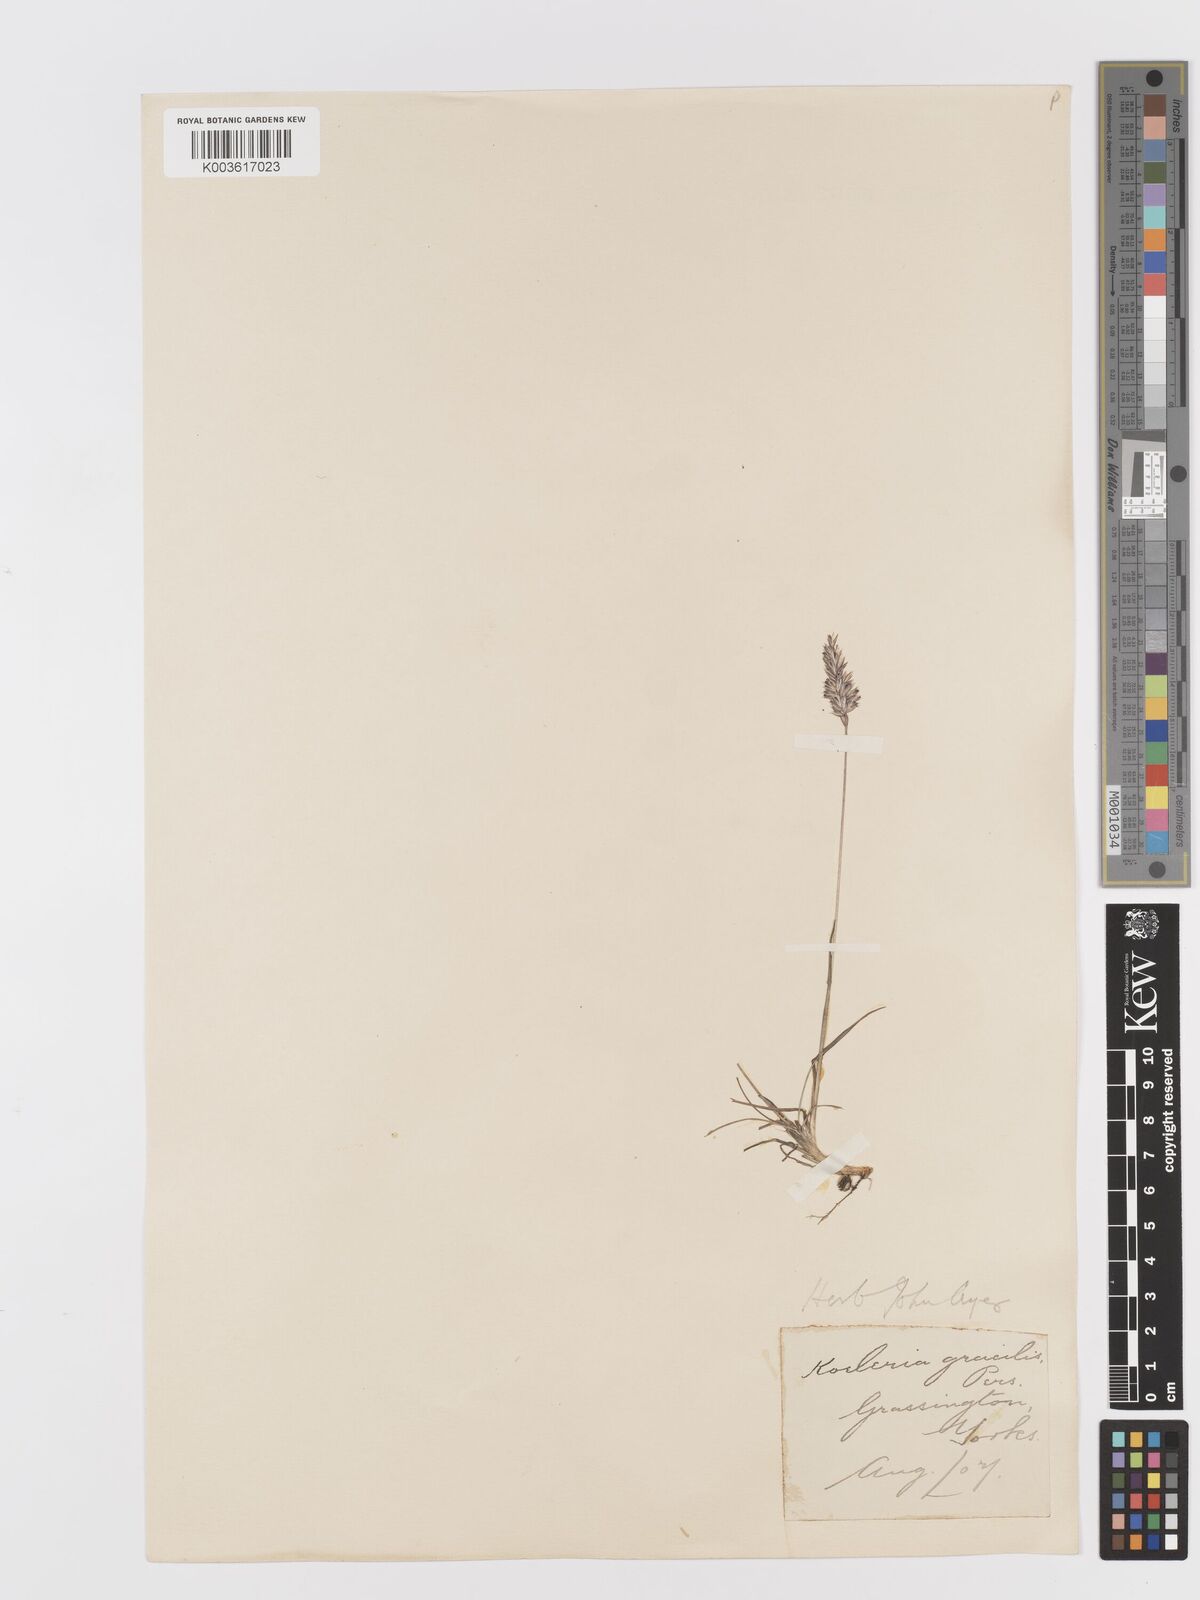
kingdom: Plantae
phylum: Tracheophyta
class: Liliopsida
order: Poales
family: Poaceae
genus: Koeleria
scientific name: Koeleria macrantha
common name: Crested hair-grass
